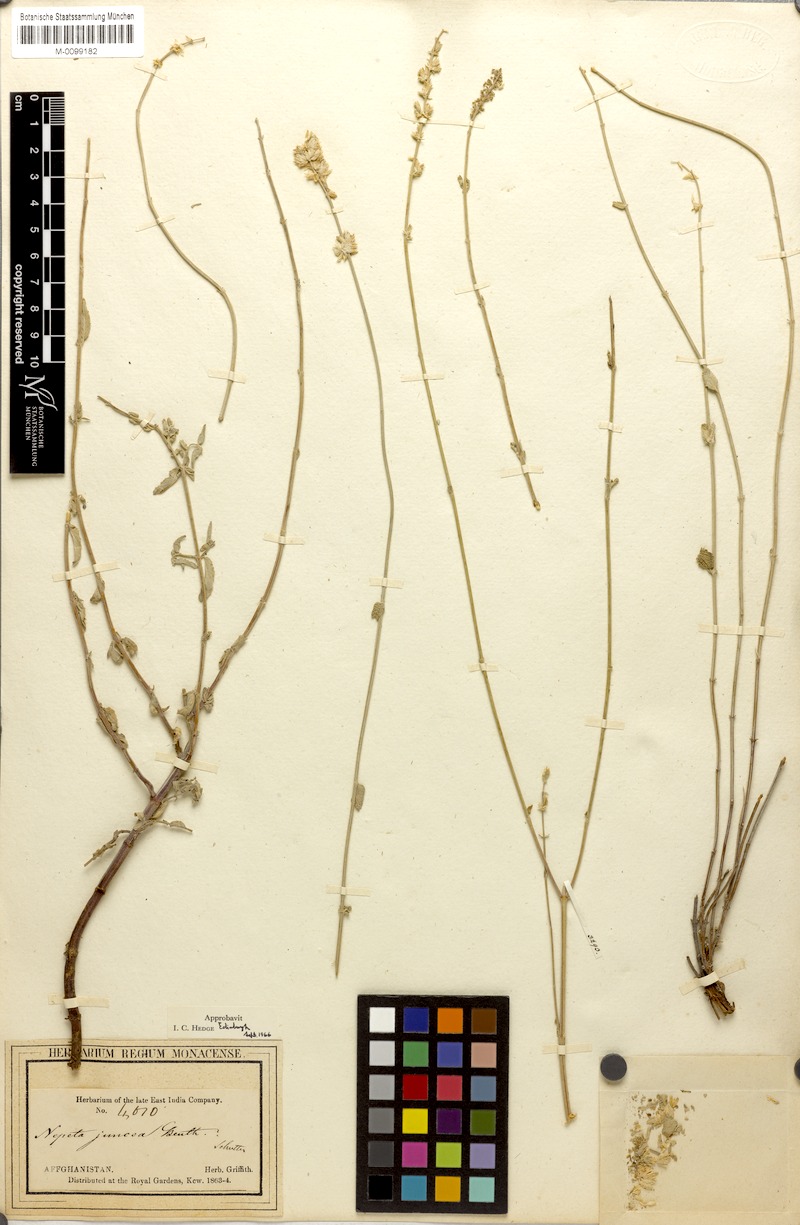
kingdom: Plantae
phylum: Tracheophyta
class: Magnoliopsida
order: Lamiales
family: Lamiaceae
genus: Nepeta
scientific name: Nepeta juncea
